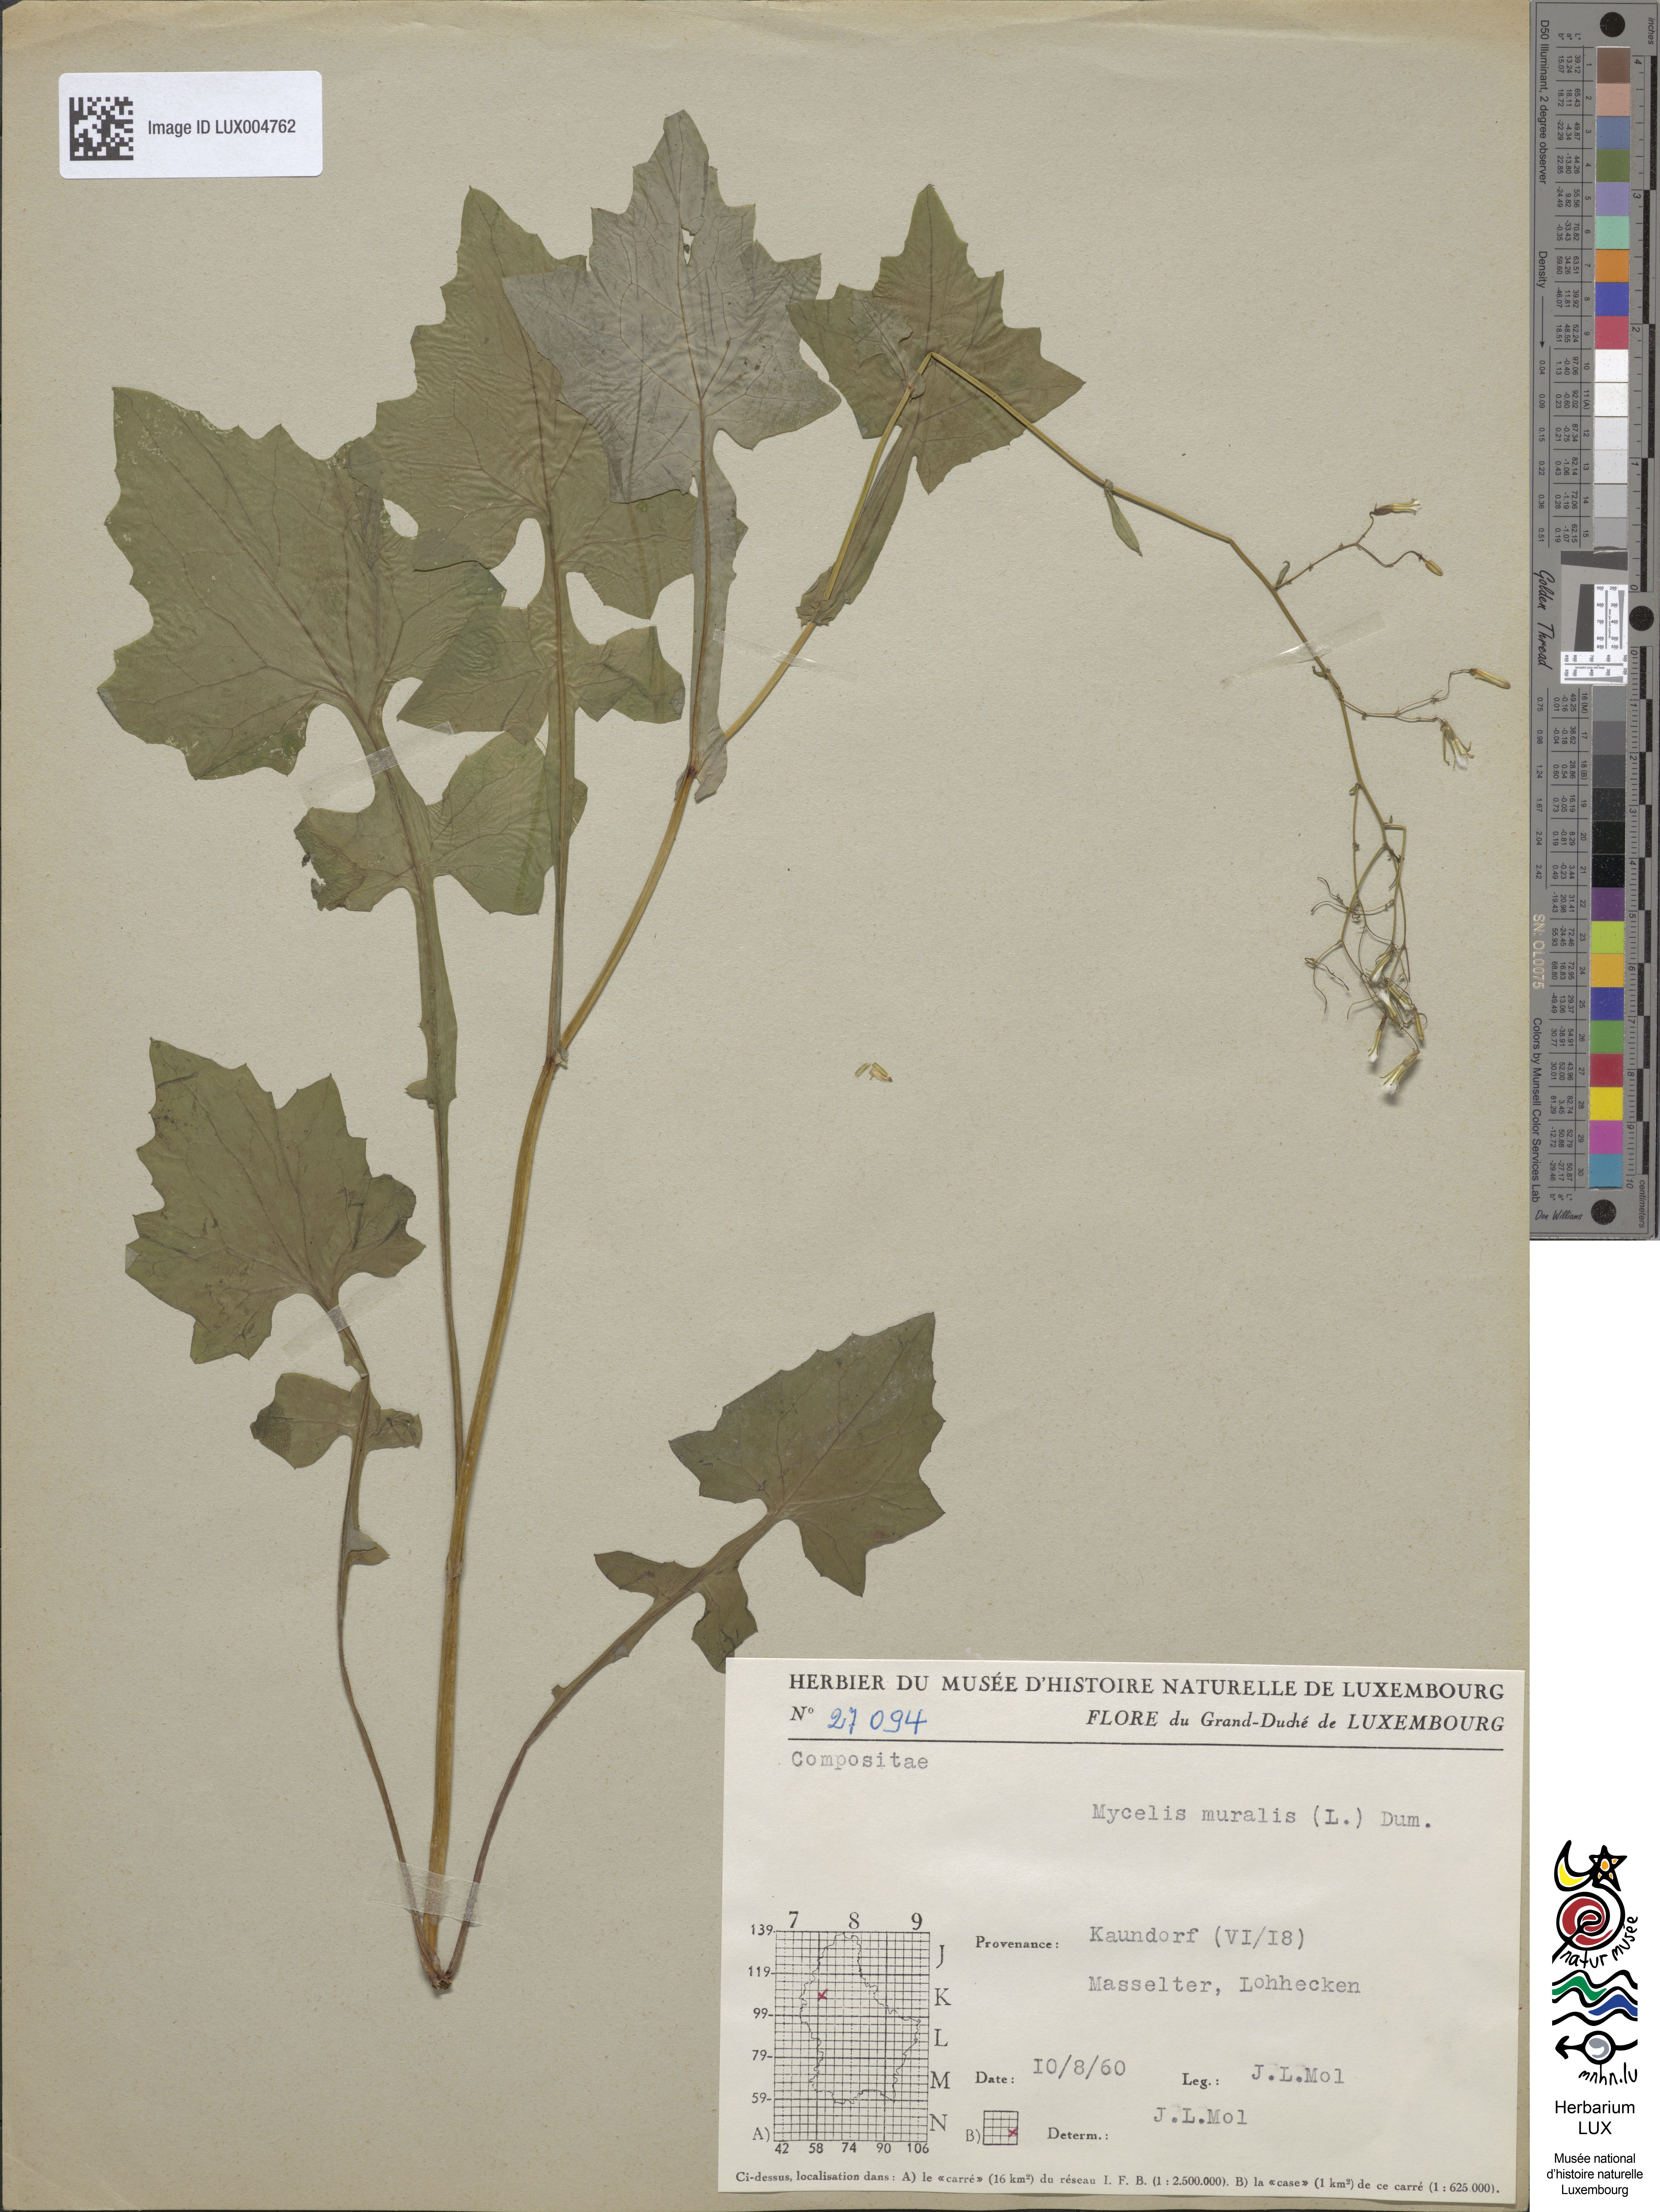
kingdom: Plantae
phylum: Tracheophyta
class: Magnoliopsida
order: Asterales
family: Asteraceae
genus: Mycelis
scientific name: Mycelis muralis
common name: Wall lettuce
